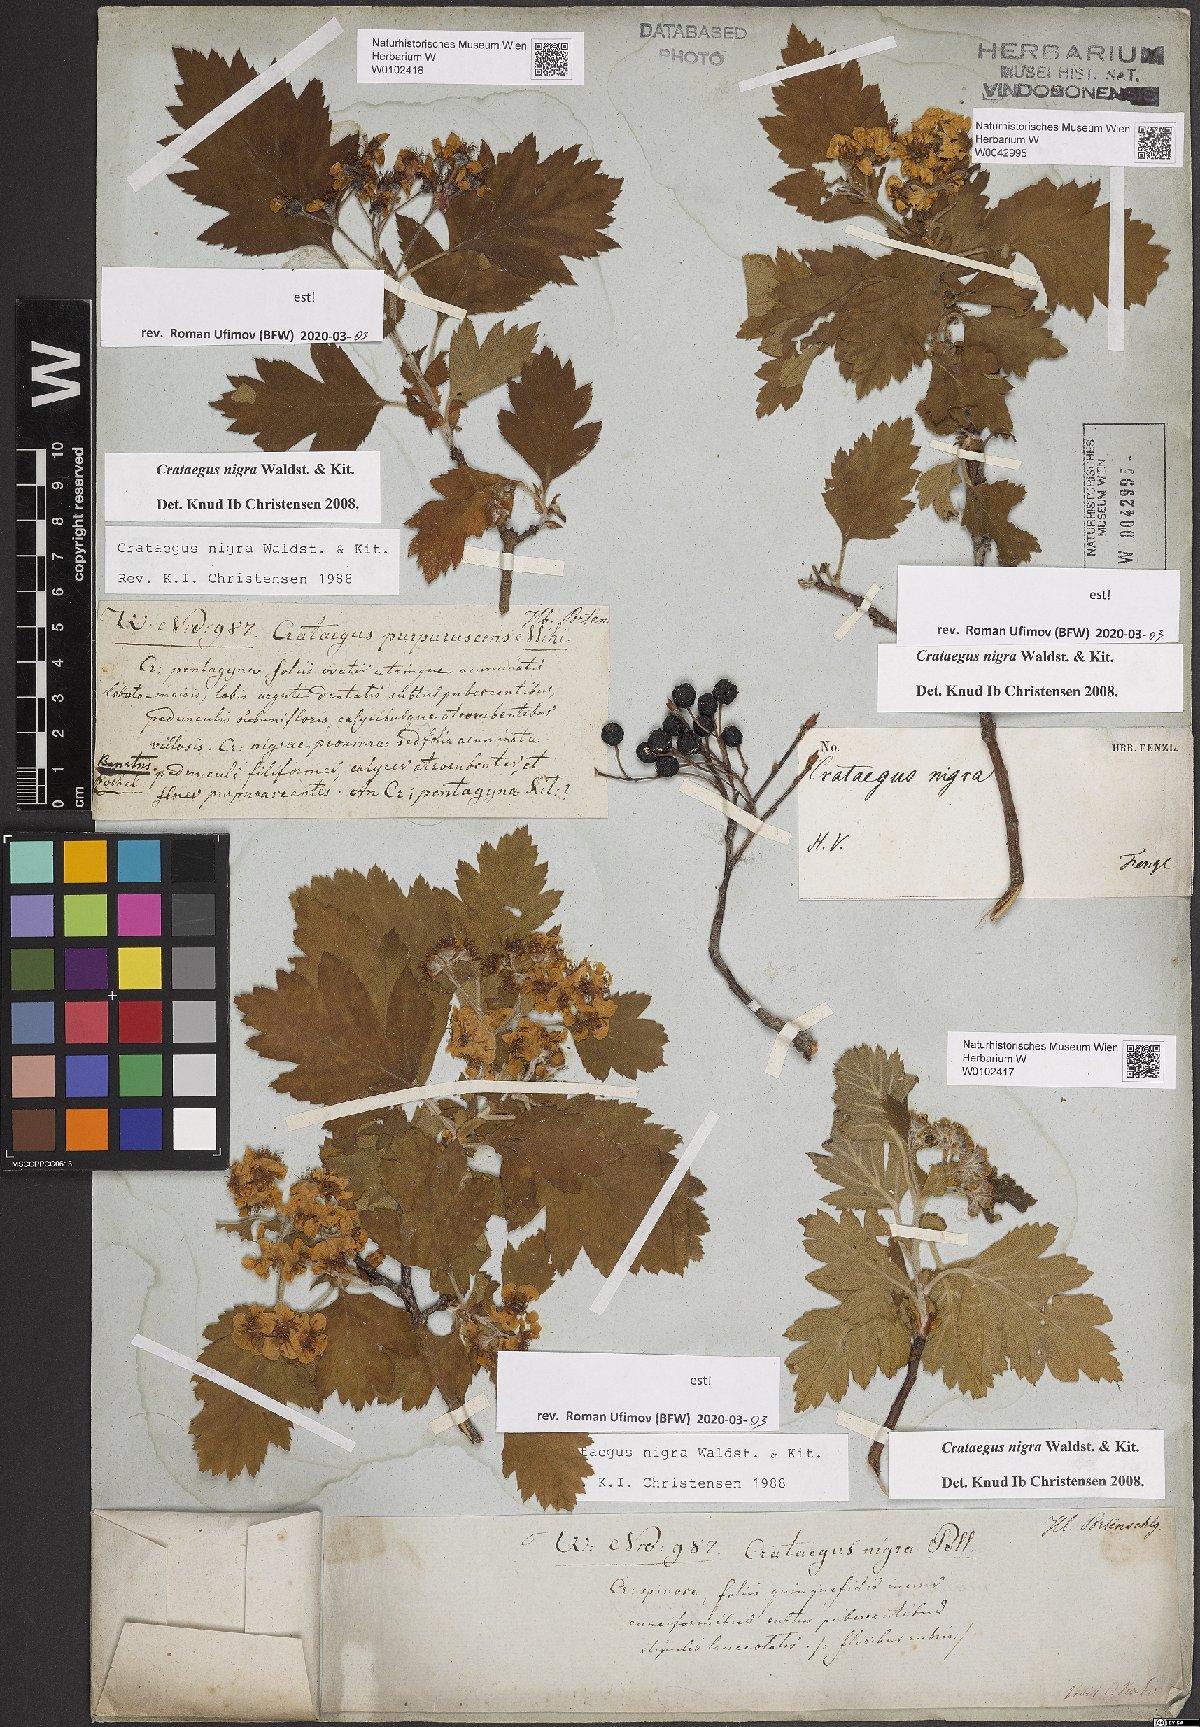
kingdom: Plantae
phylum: Tracheophyta
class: Magnoliopsida
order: Rosales
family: Rosaceae
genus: Crataegus
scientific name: Crataegus nigra
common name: Hungarian thorn
